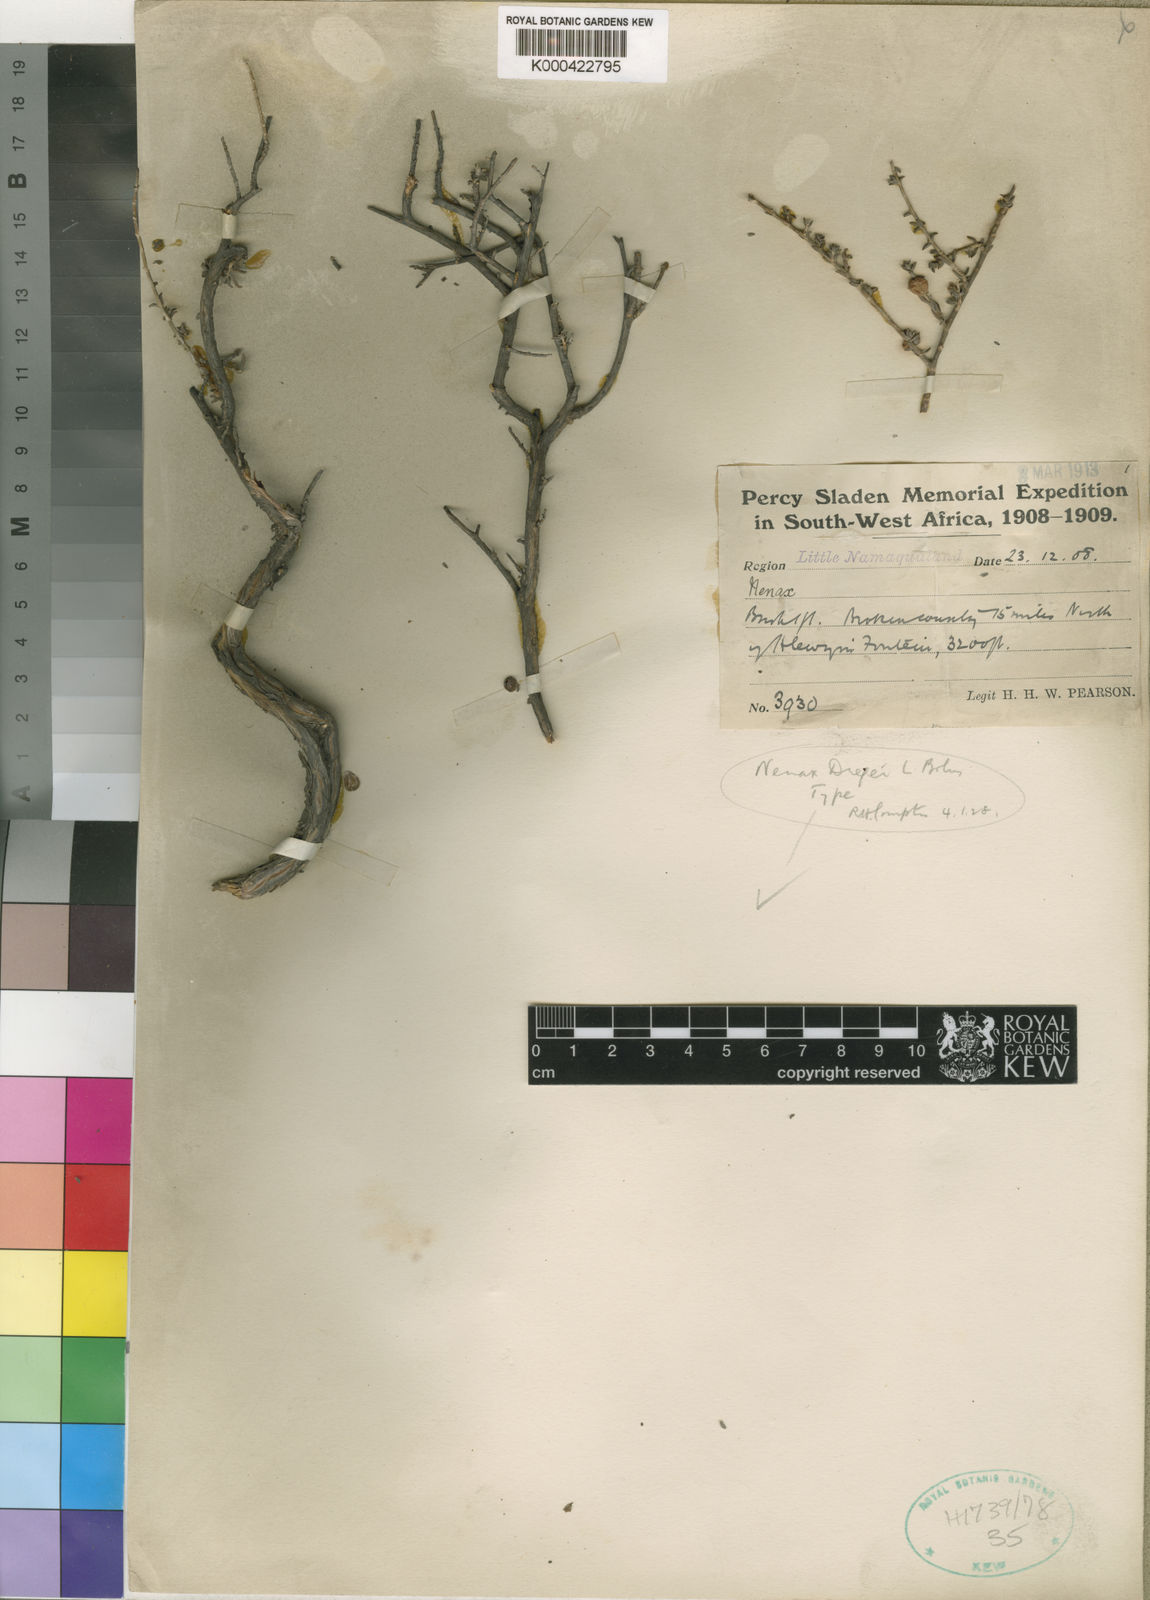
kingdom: Plantae
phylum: Tracheophyta
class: Magnoliopsida
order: Gentianales
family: Rubiaceae
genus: Nenax
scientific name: Nenax cinerea
